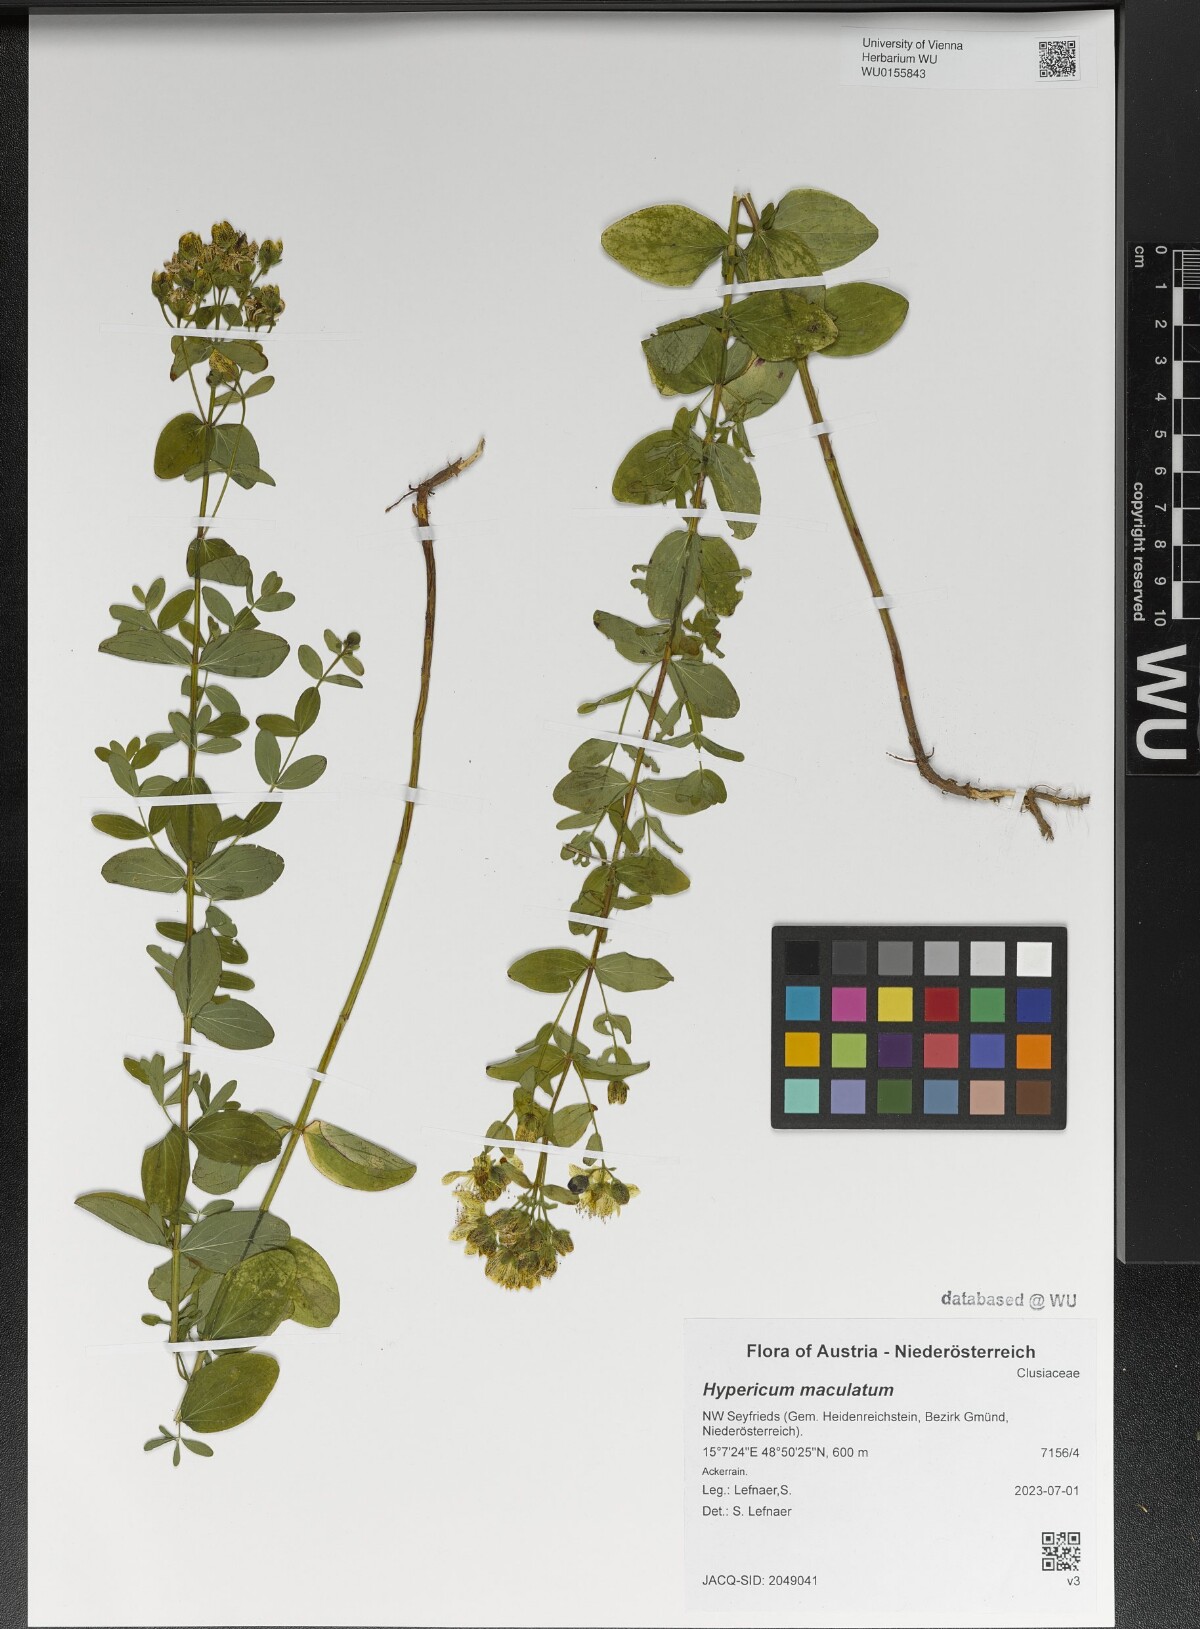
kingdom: Plantae
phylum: Tracheophyta
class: Magnoliopsida
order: Malpighiales
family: Hypericaceae
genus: Hypericum
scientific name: Hypericum maculatum
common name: Imperforate st. john's-wort
